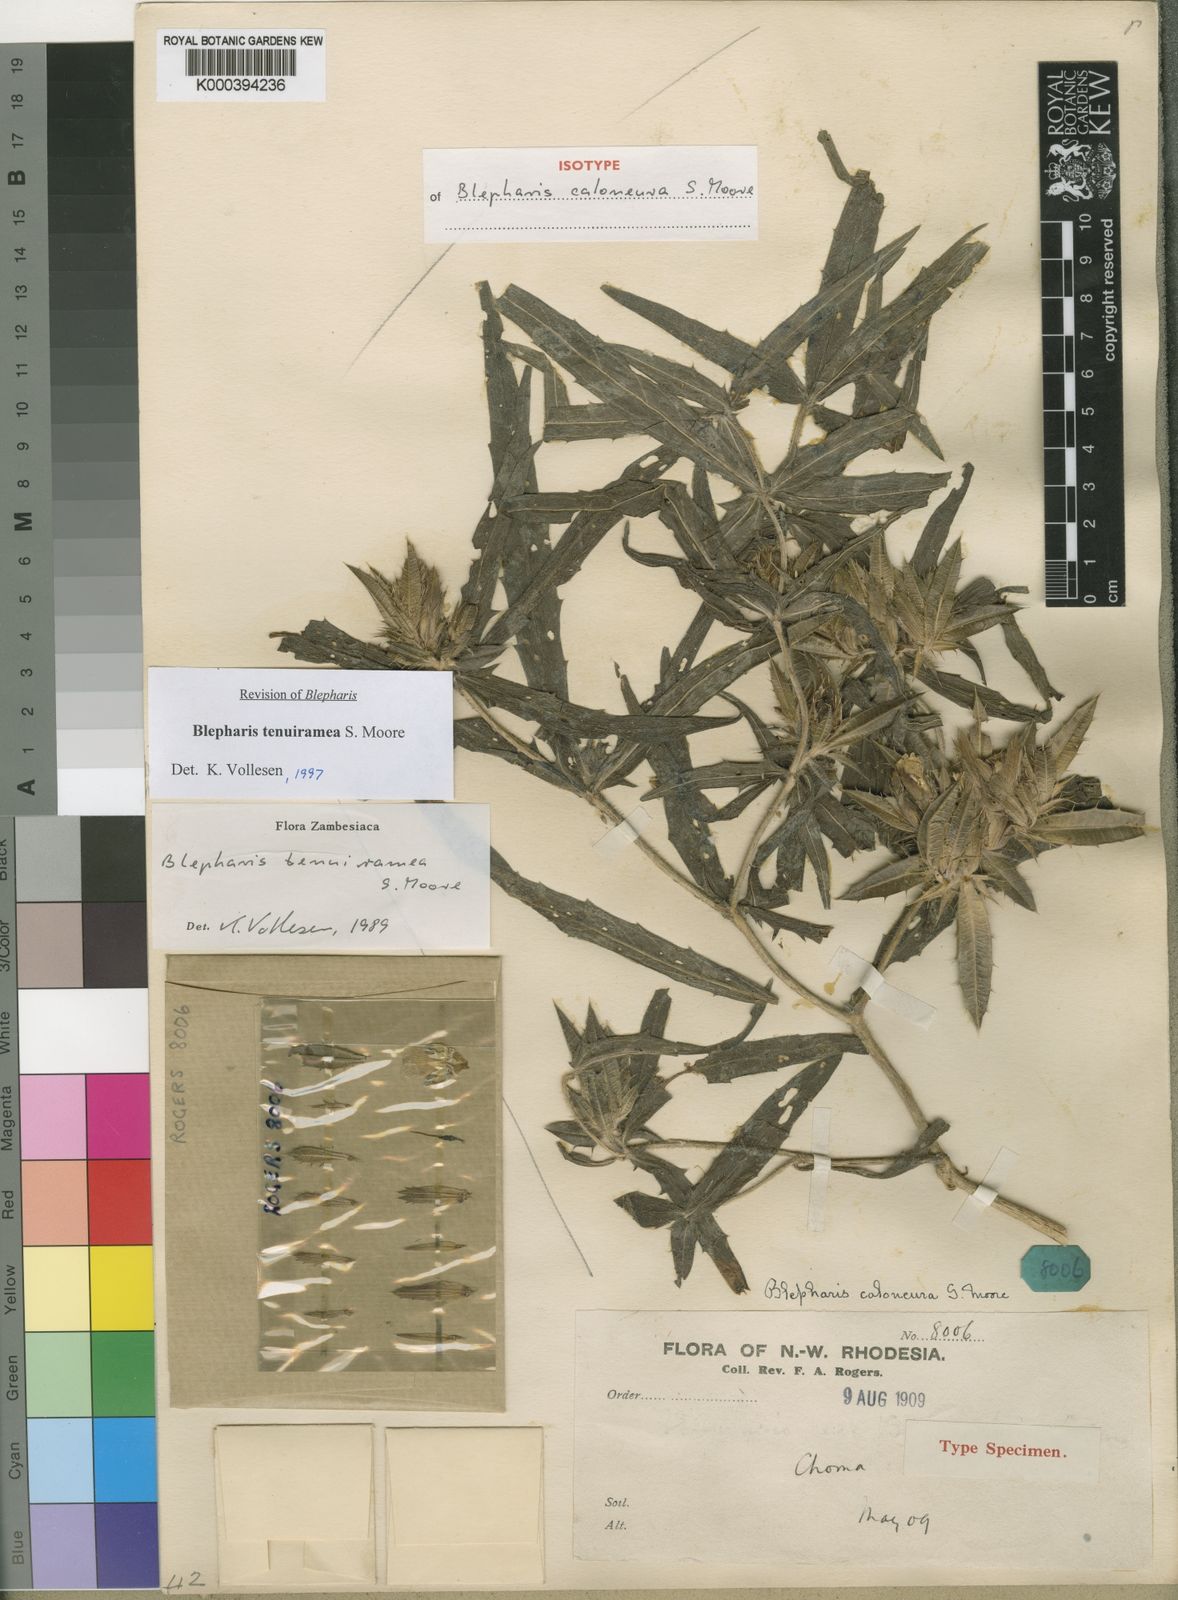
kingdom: Plantae
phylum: Tracheophyta
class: Magnoliopsida
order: Lamiales
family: Acanthaceae
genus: Blepharis
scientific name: Blepharis tenuiramea
